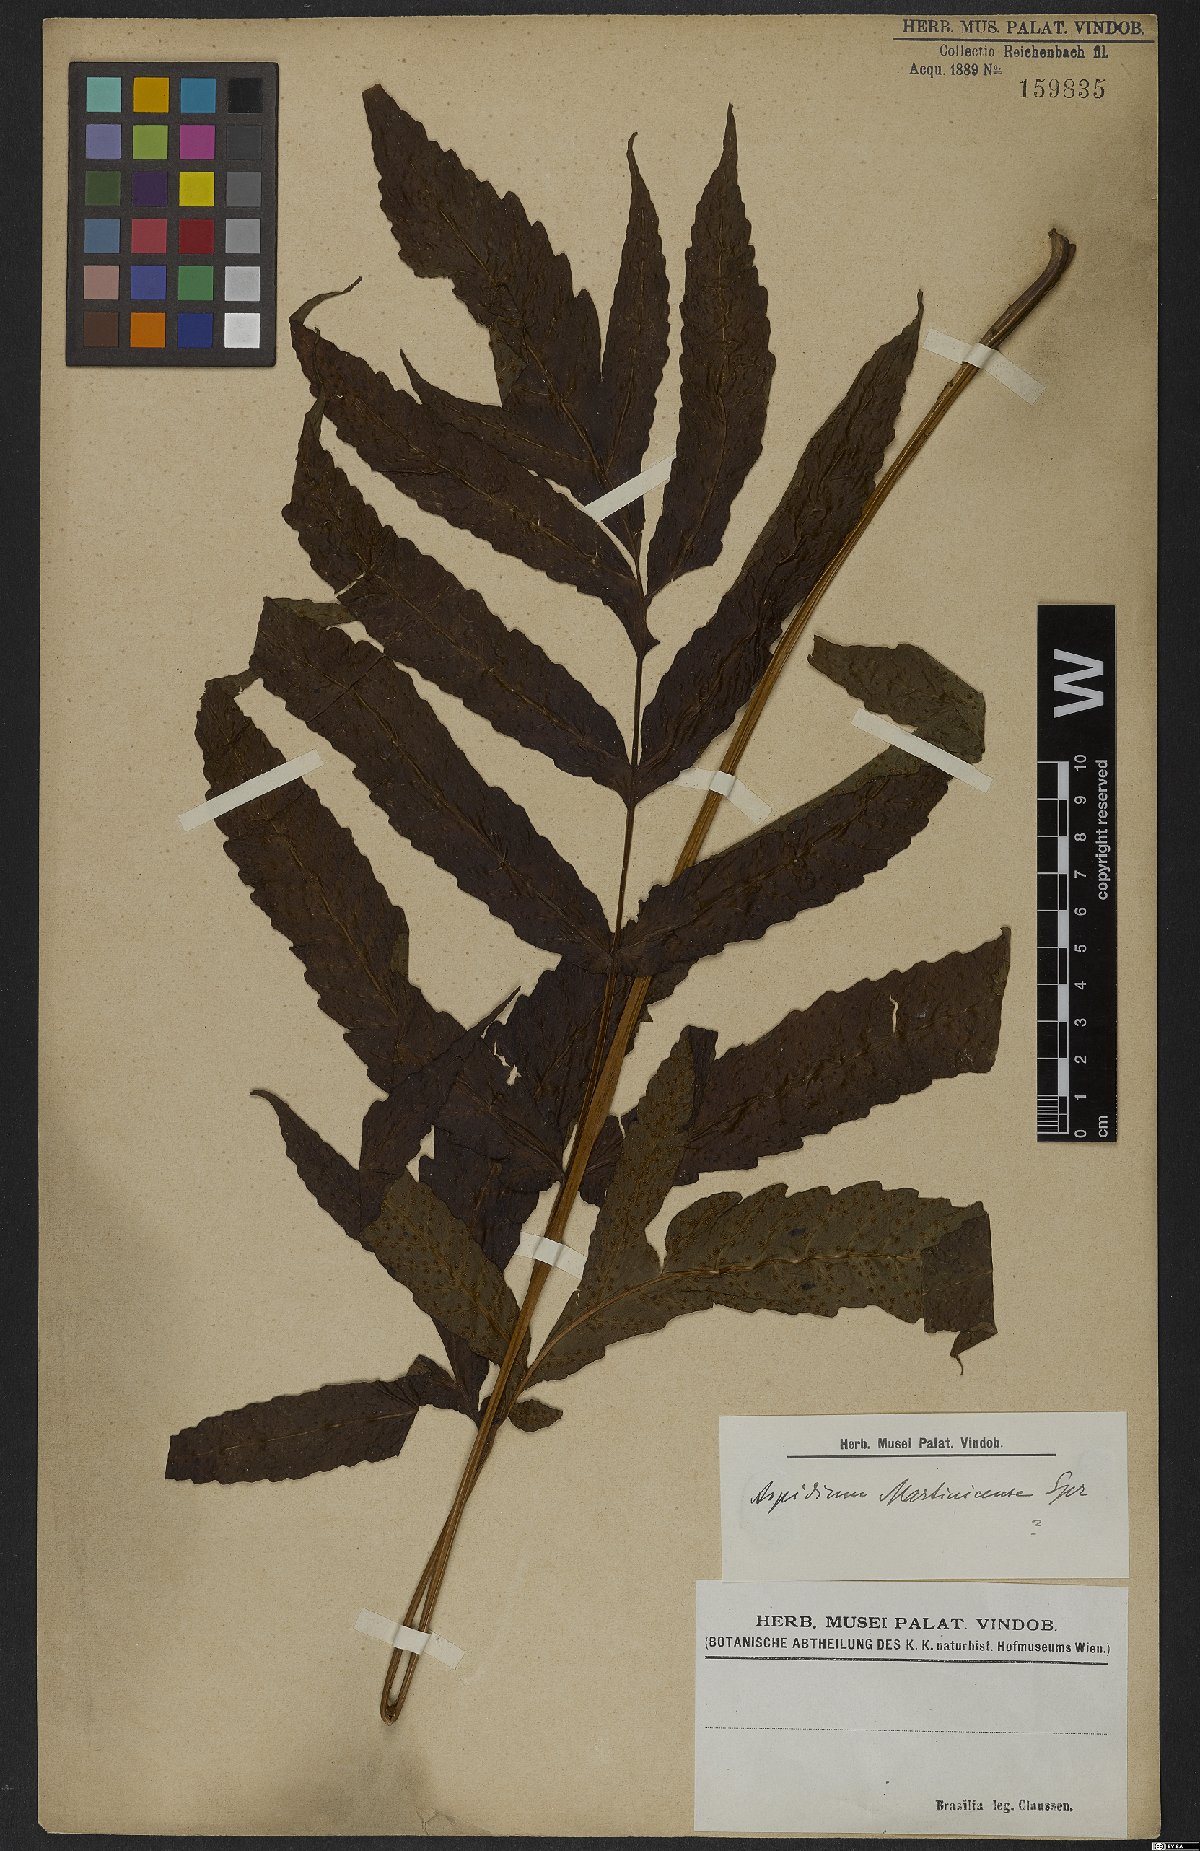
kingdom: Plantae
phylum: Tracheophyta
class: Polypodiopsida
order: Polypodiales
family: Tectariaceae
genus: Tectaria
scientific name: Tectaria incisa
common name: Incised halberd fern
